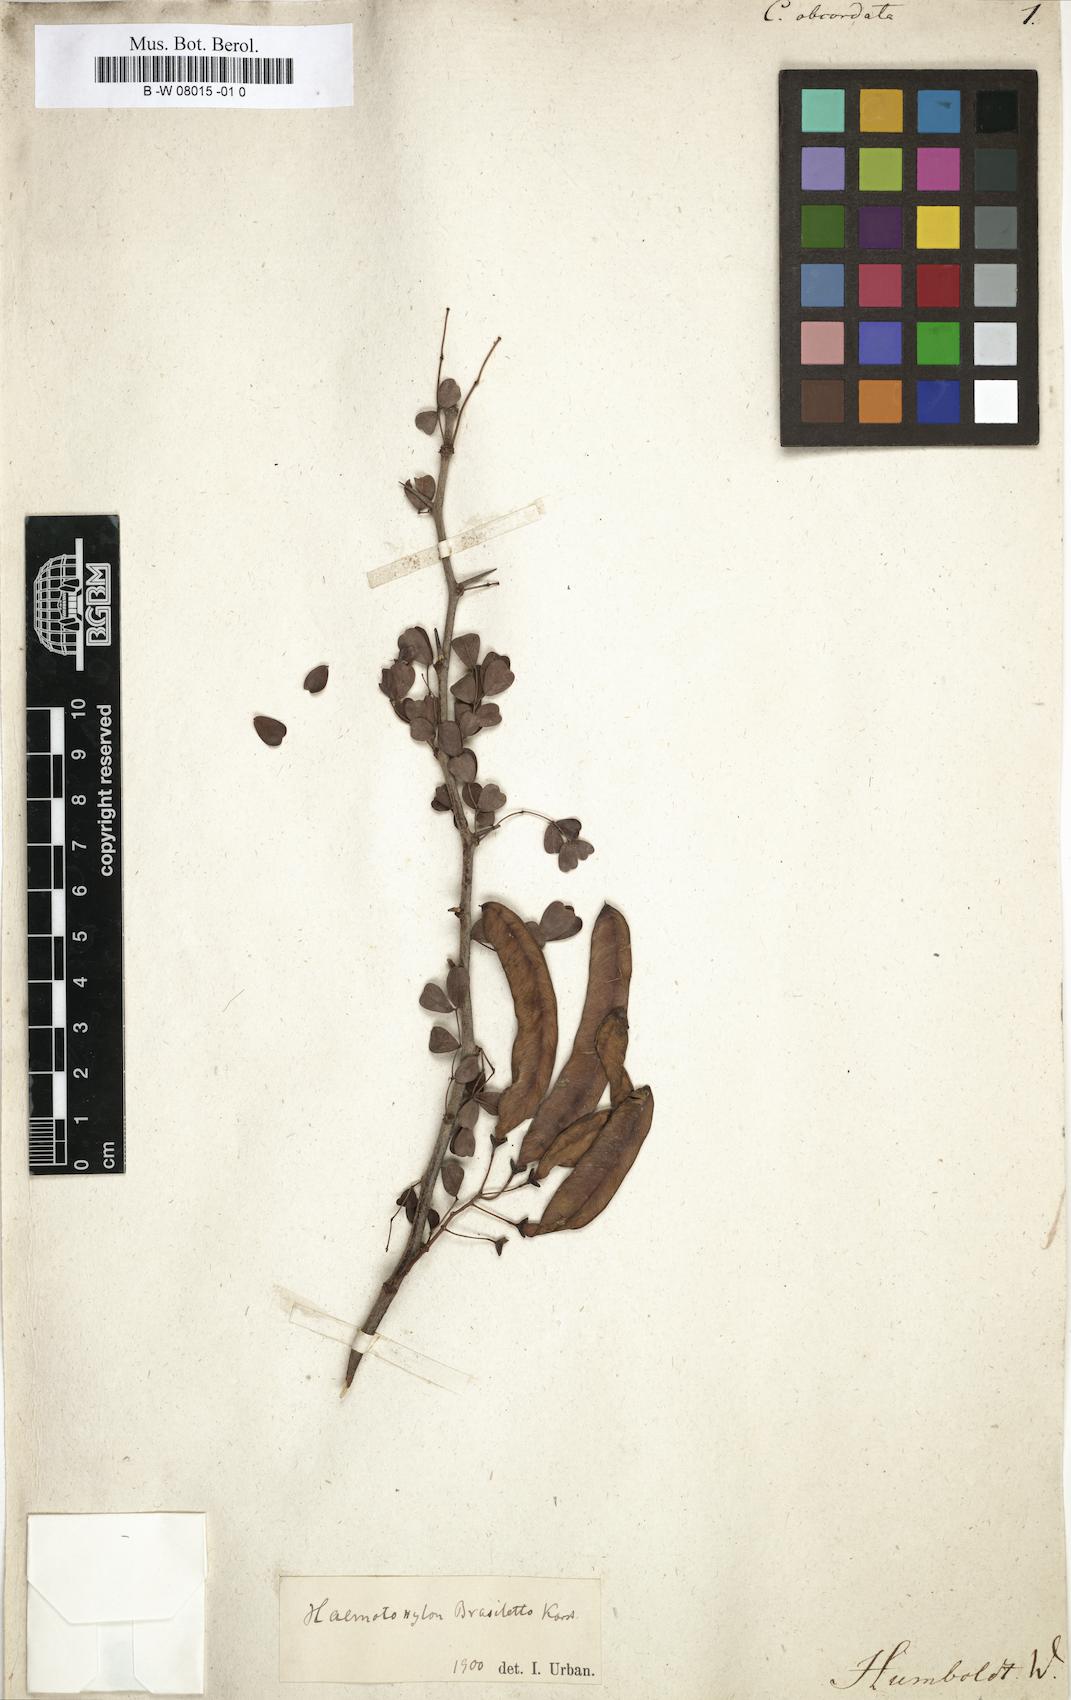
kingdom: Plantae
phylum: Tracheophyta
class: Magnoliopsida
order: Fabales
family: Fabaceae
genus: Caesalpinia
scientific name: Caesalpinia
